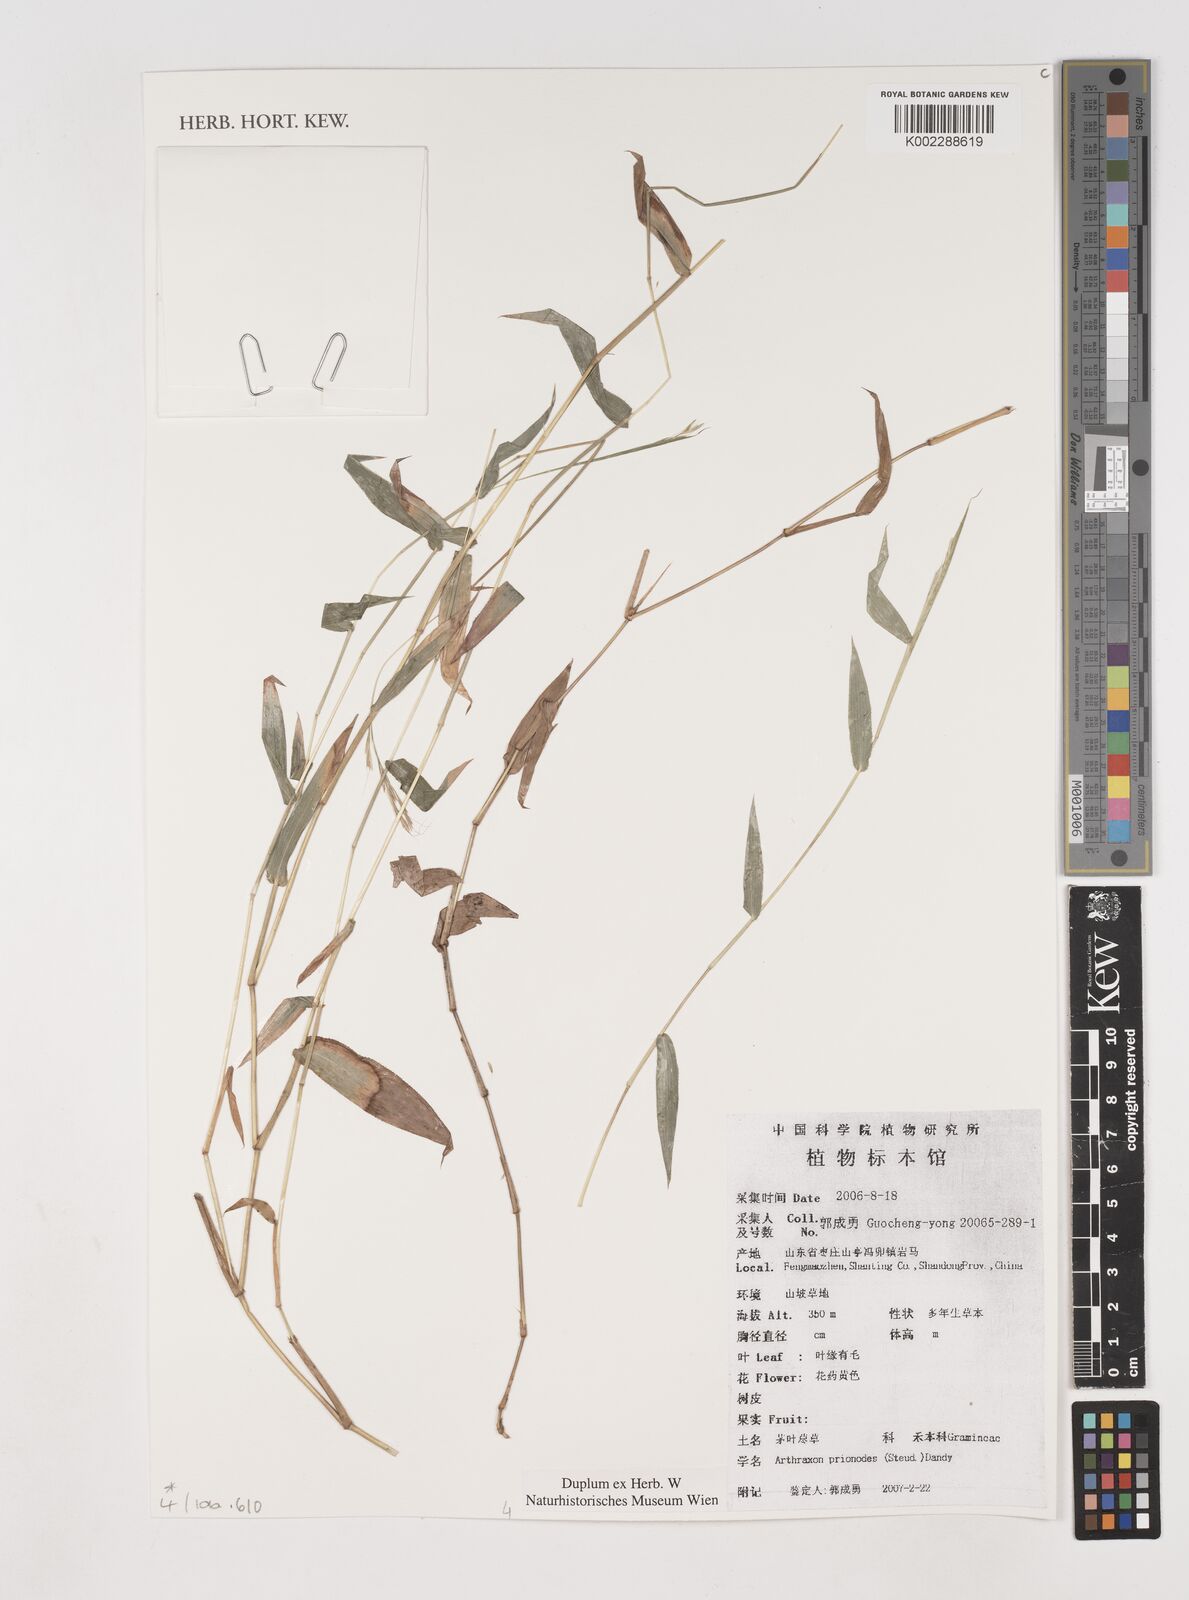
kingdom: Plantae
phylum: Tracheophyta
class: Liliopsida
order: Poales
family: Poaceae
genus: Arthraxon
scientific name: Arthraxon prionodes
